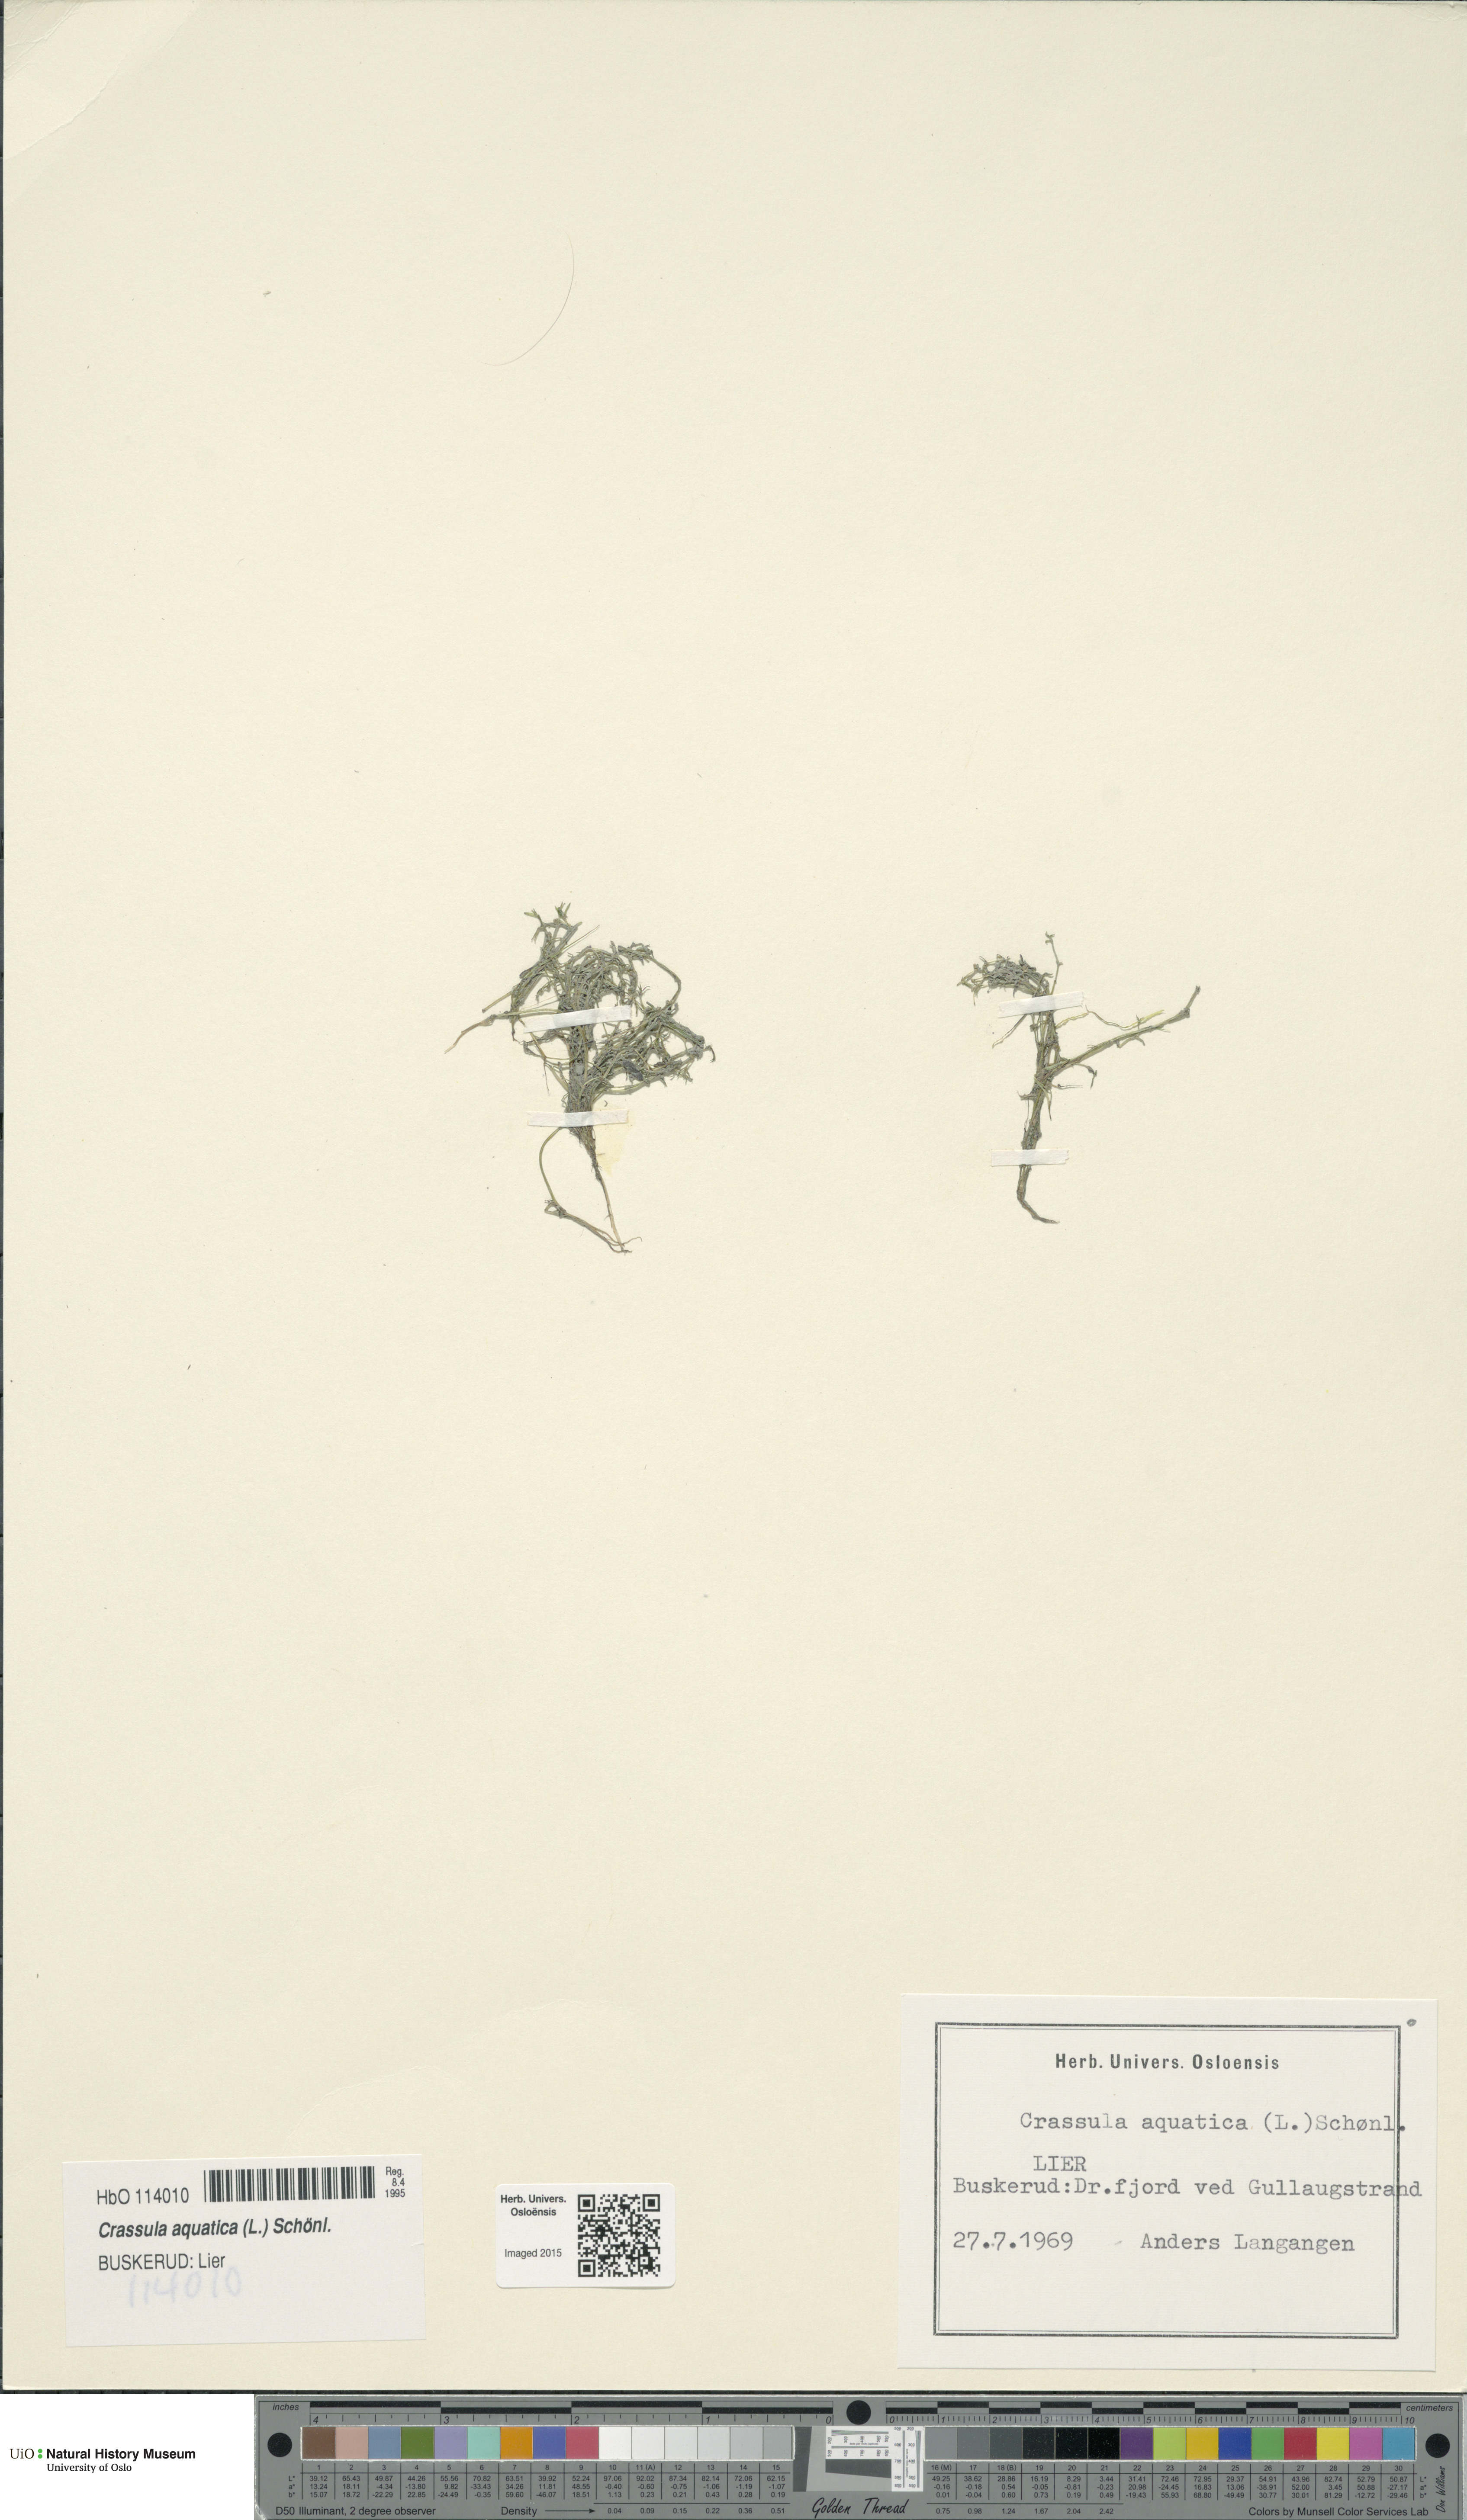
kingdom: Plantae
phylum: Tracheophyta
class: Magnoliopsida
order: Saxifragales
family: Crassulaceae
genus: Crassula
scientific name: Crassula aquatica
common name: Pigmyweed
